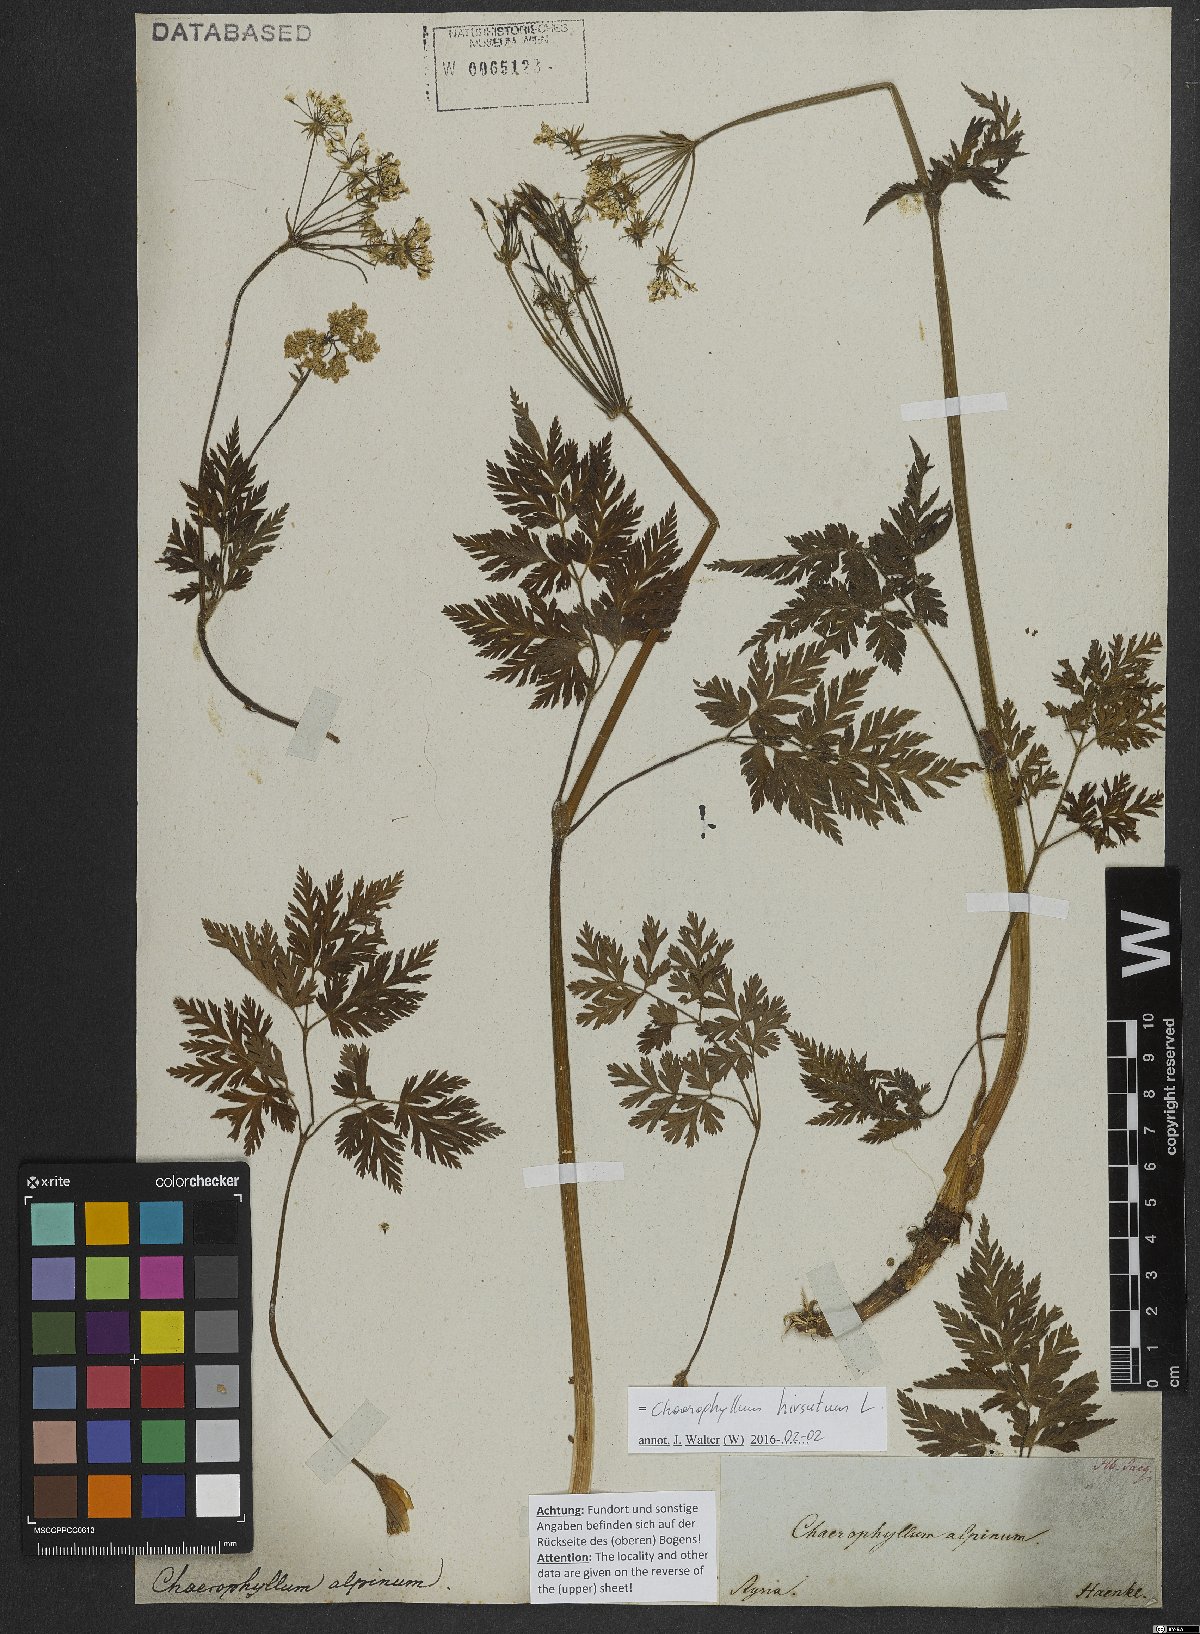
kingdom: Plantae
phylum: Tracheophyta
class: Magnoliopsida
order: Apiales
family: Apiaceae
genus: Chaerophyllum
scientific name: Chaerophyllum hirsutum
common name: Hairy chervil
